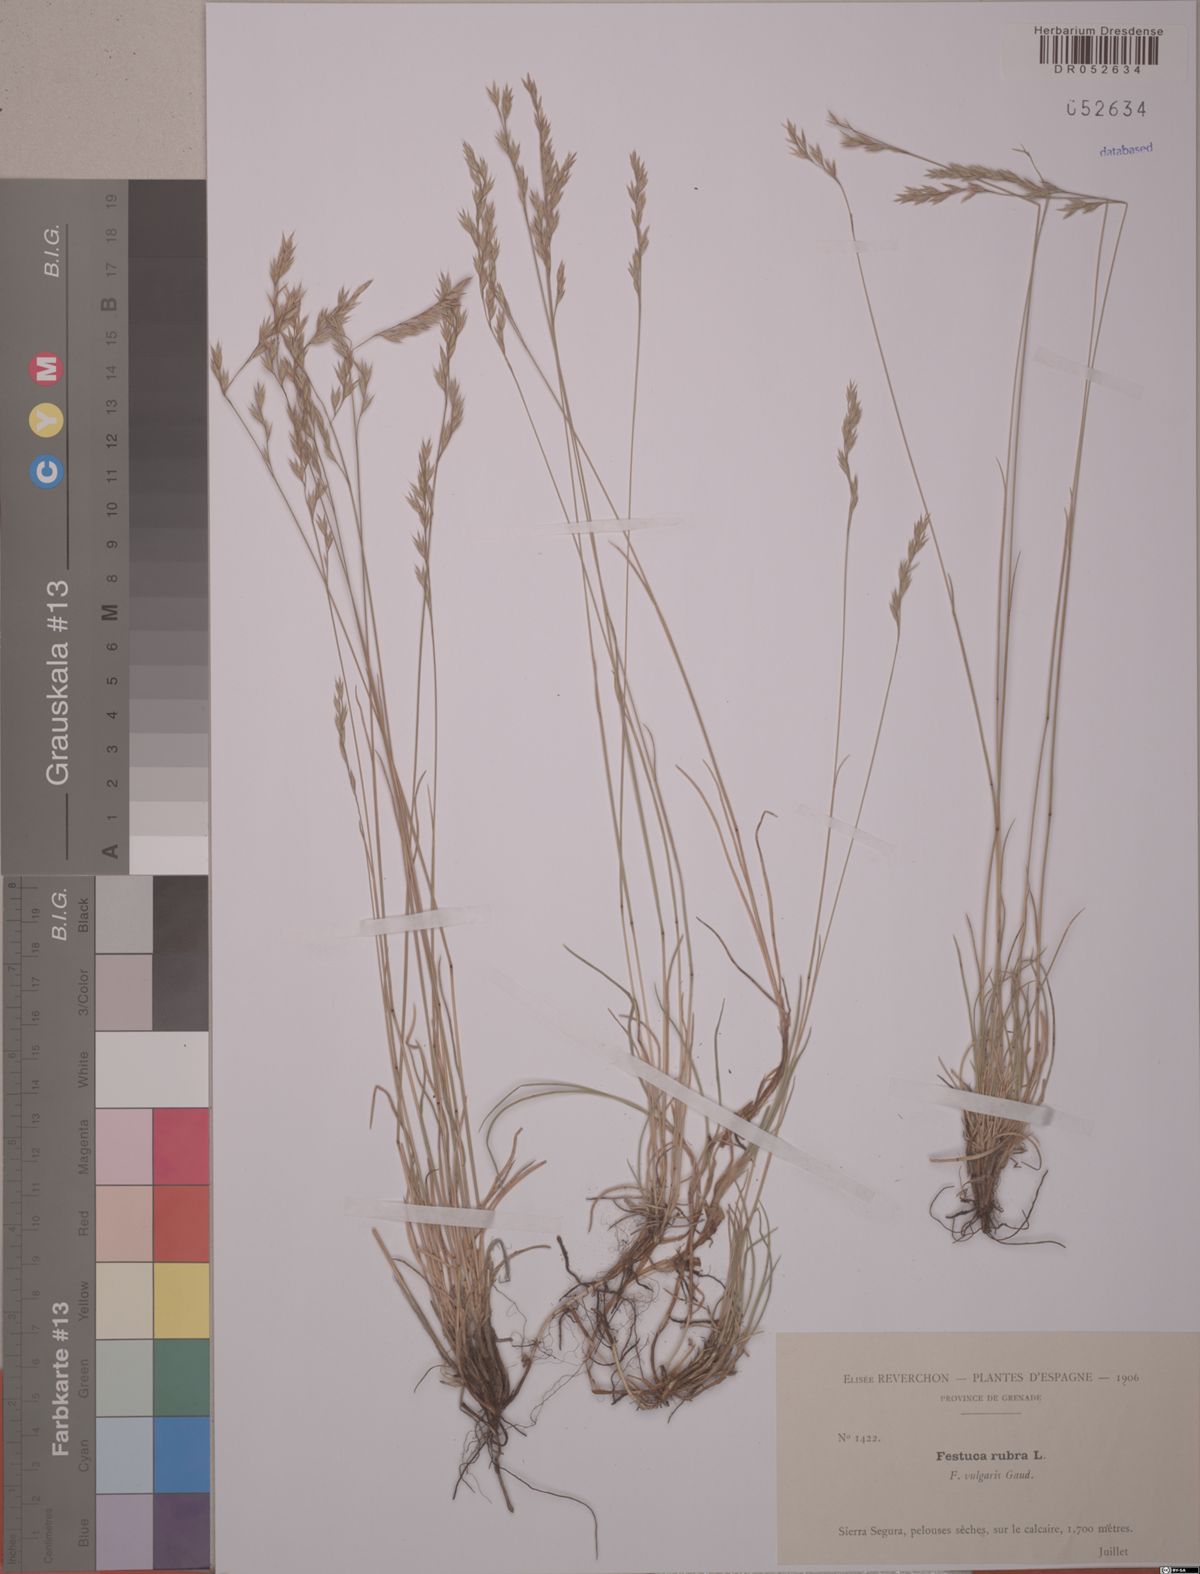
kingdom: Plantae
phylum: Tracheophyta
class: Liliopsida
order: Poales
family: Poaceae
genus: Festuca
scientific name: Festuca rubra
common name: Red fescue
